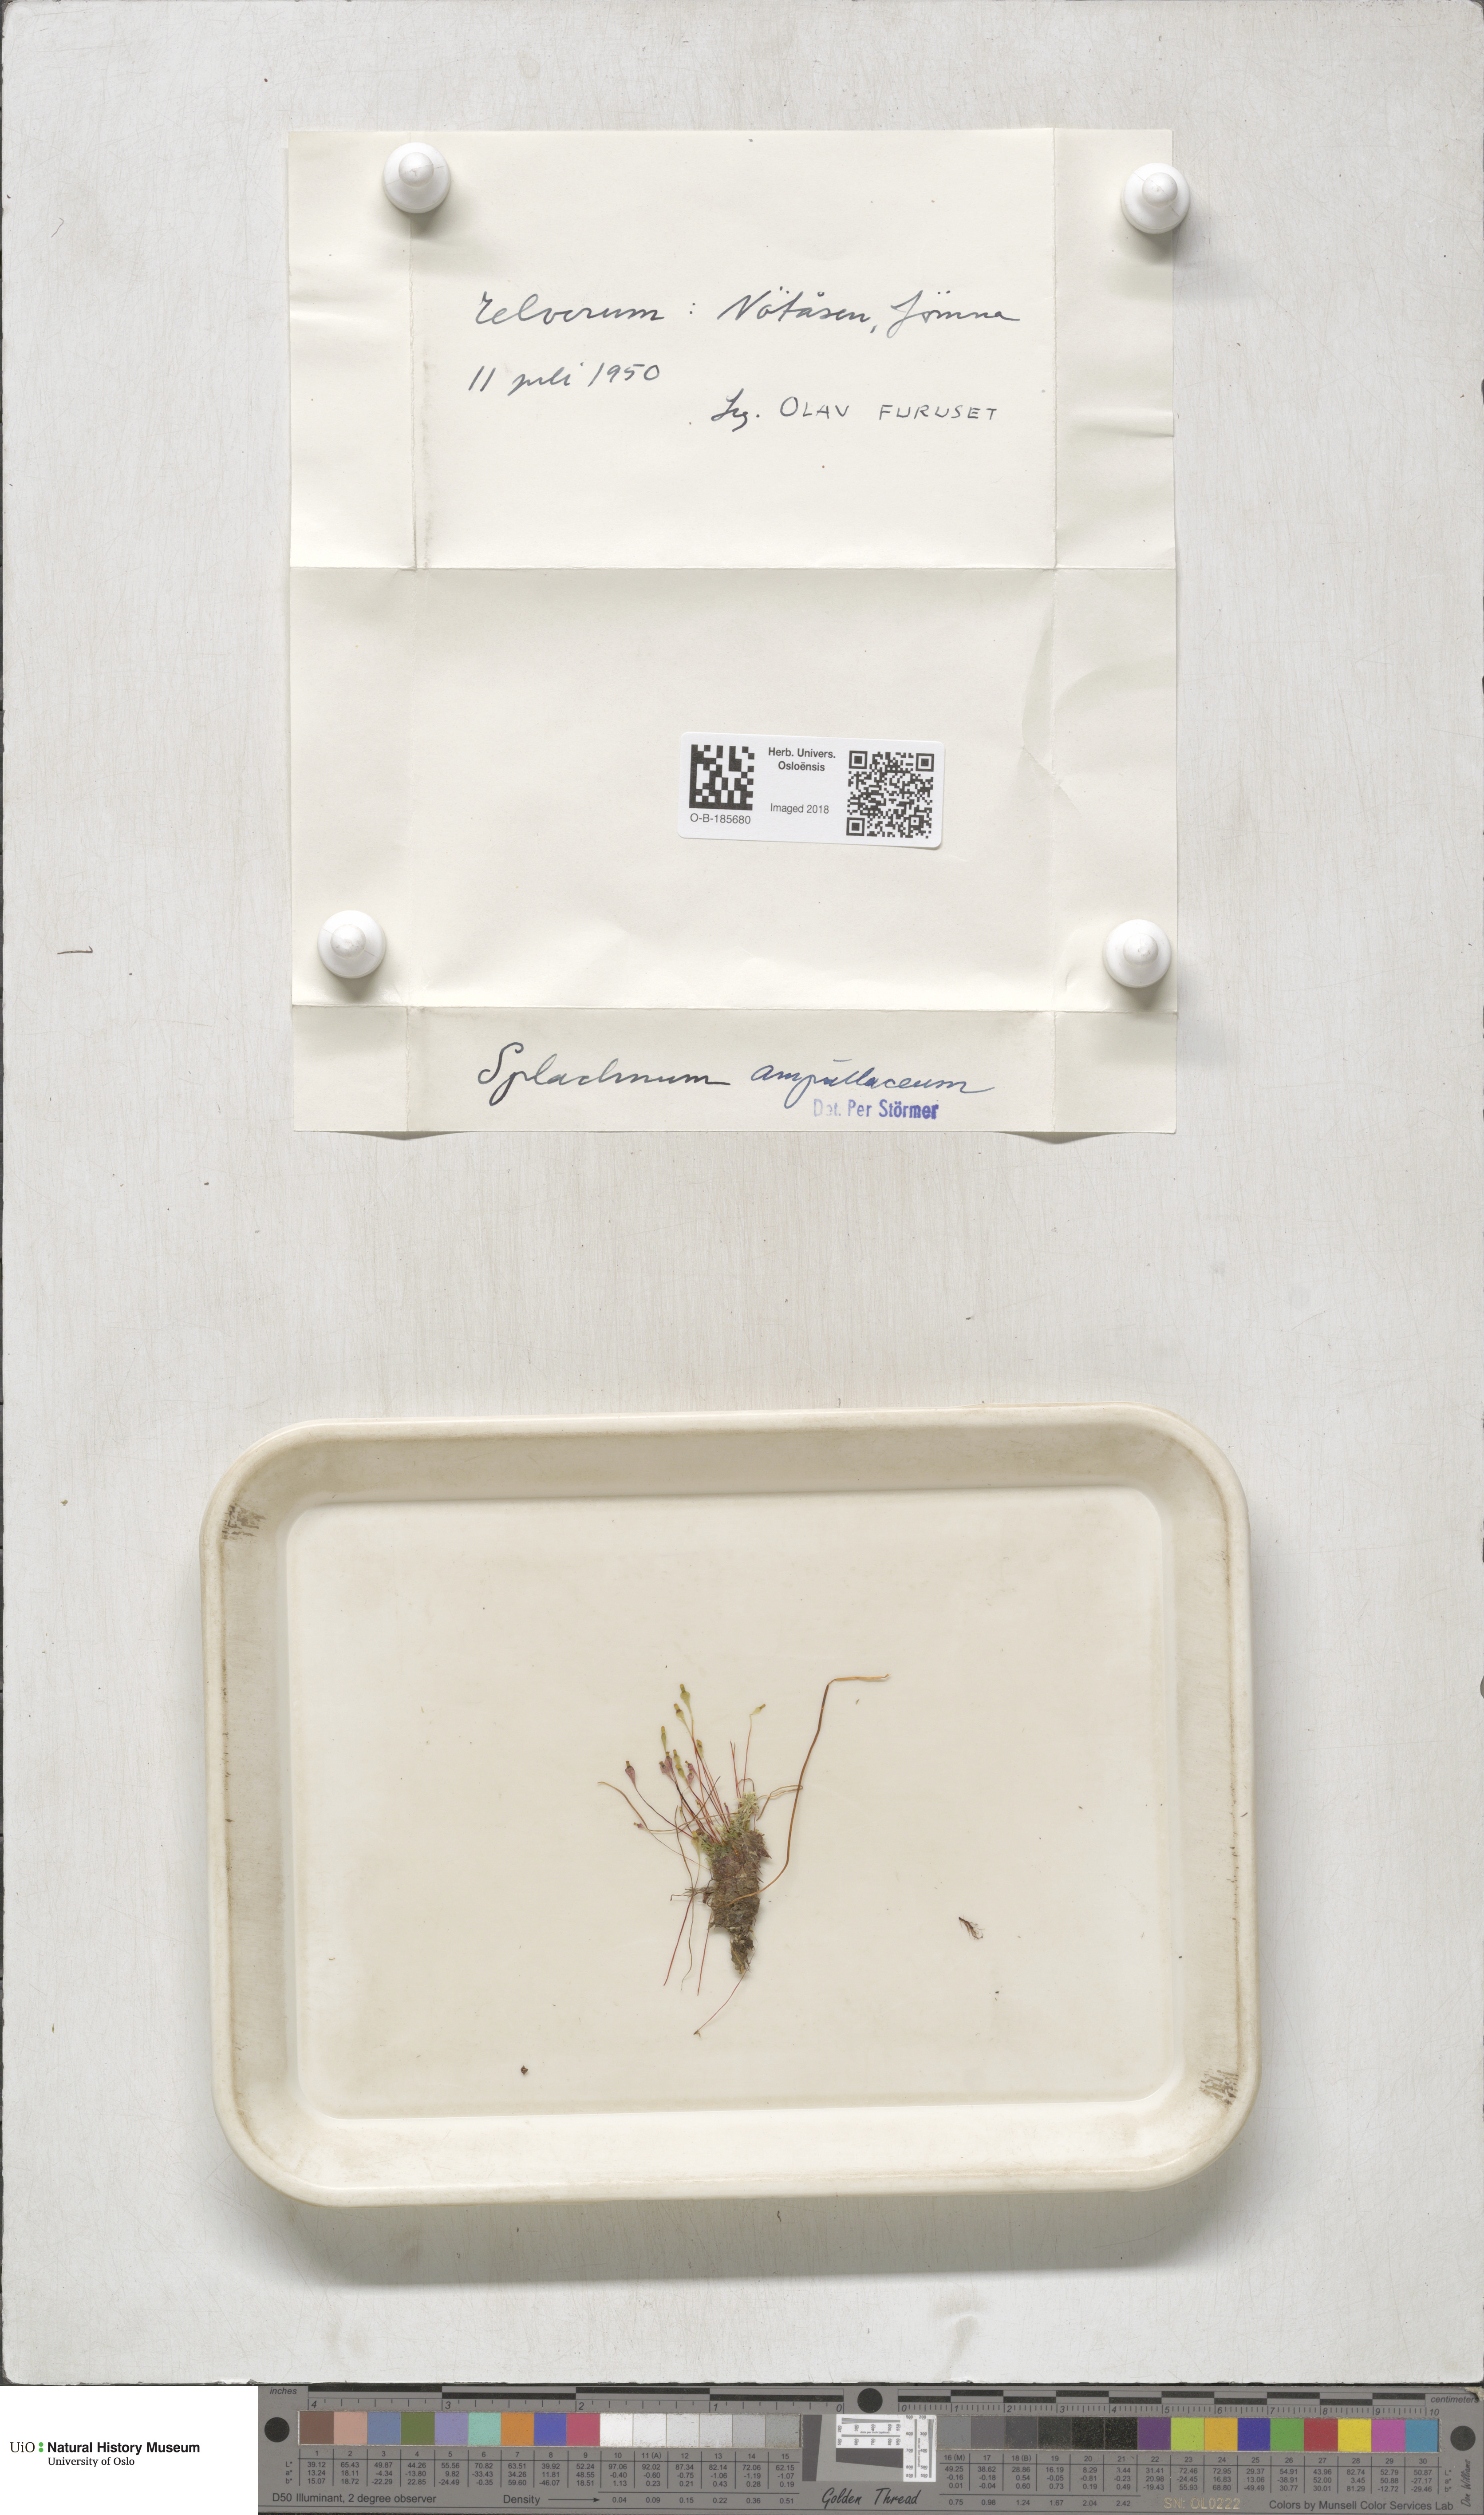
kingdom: Plantae
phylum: Bryophyta
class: Bryopsida
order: Splachnales
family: Splachnaceae
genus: Splachnum
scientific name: Splachnum ampullaceum
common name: Cruet dung moss
